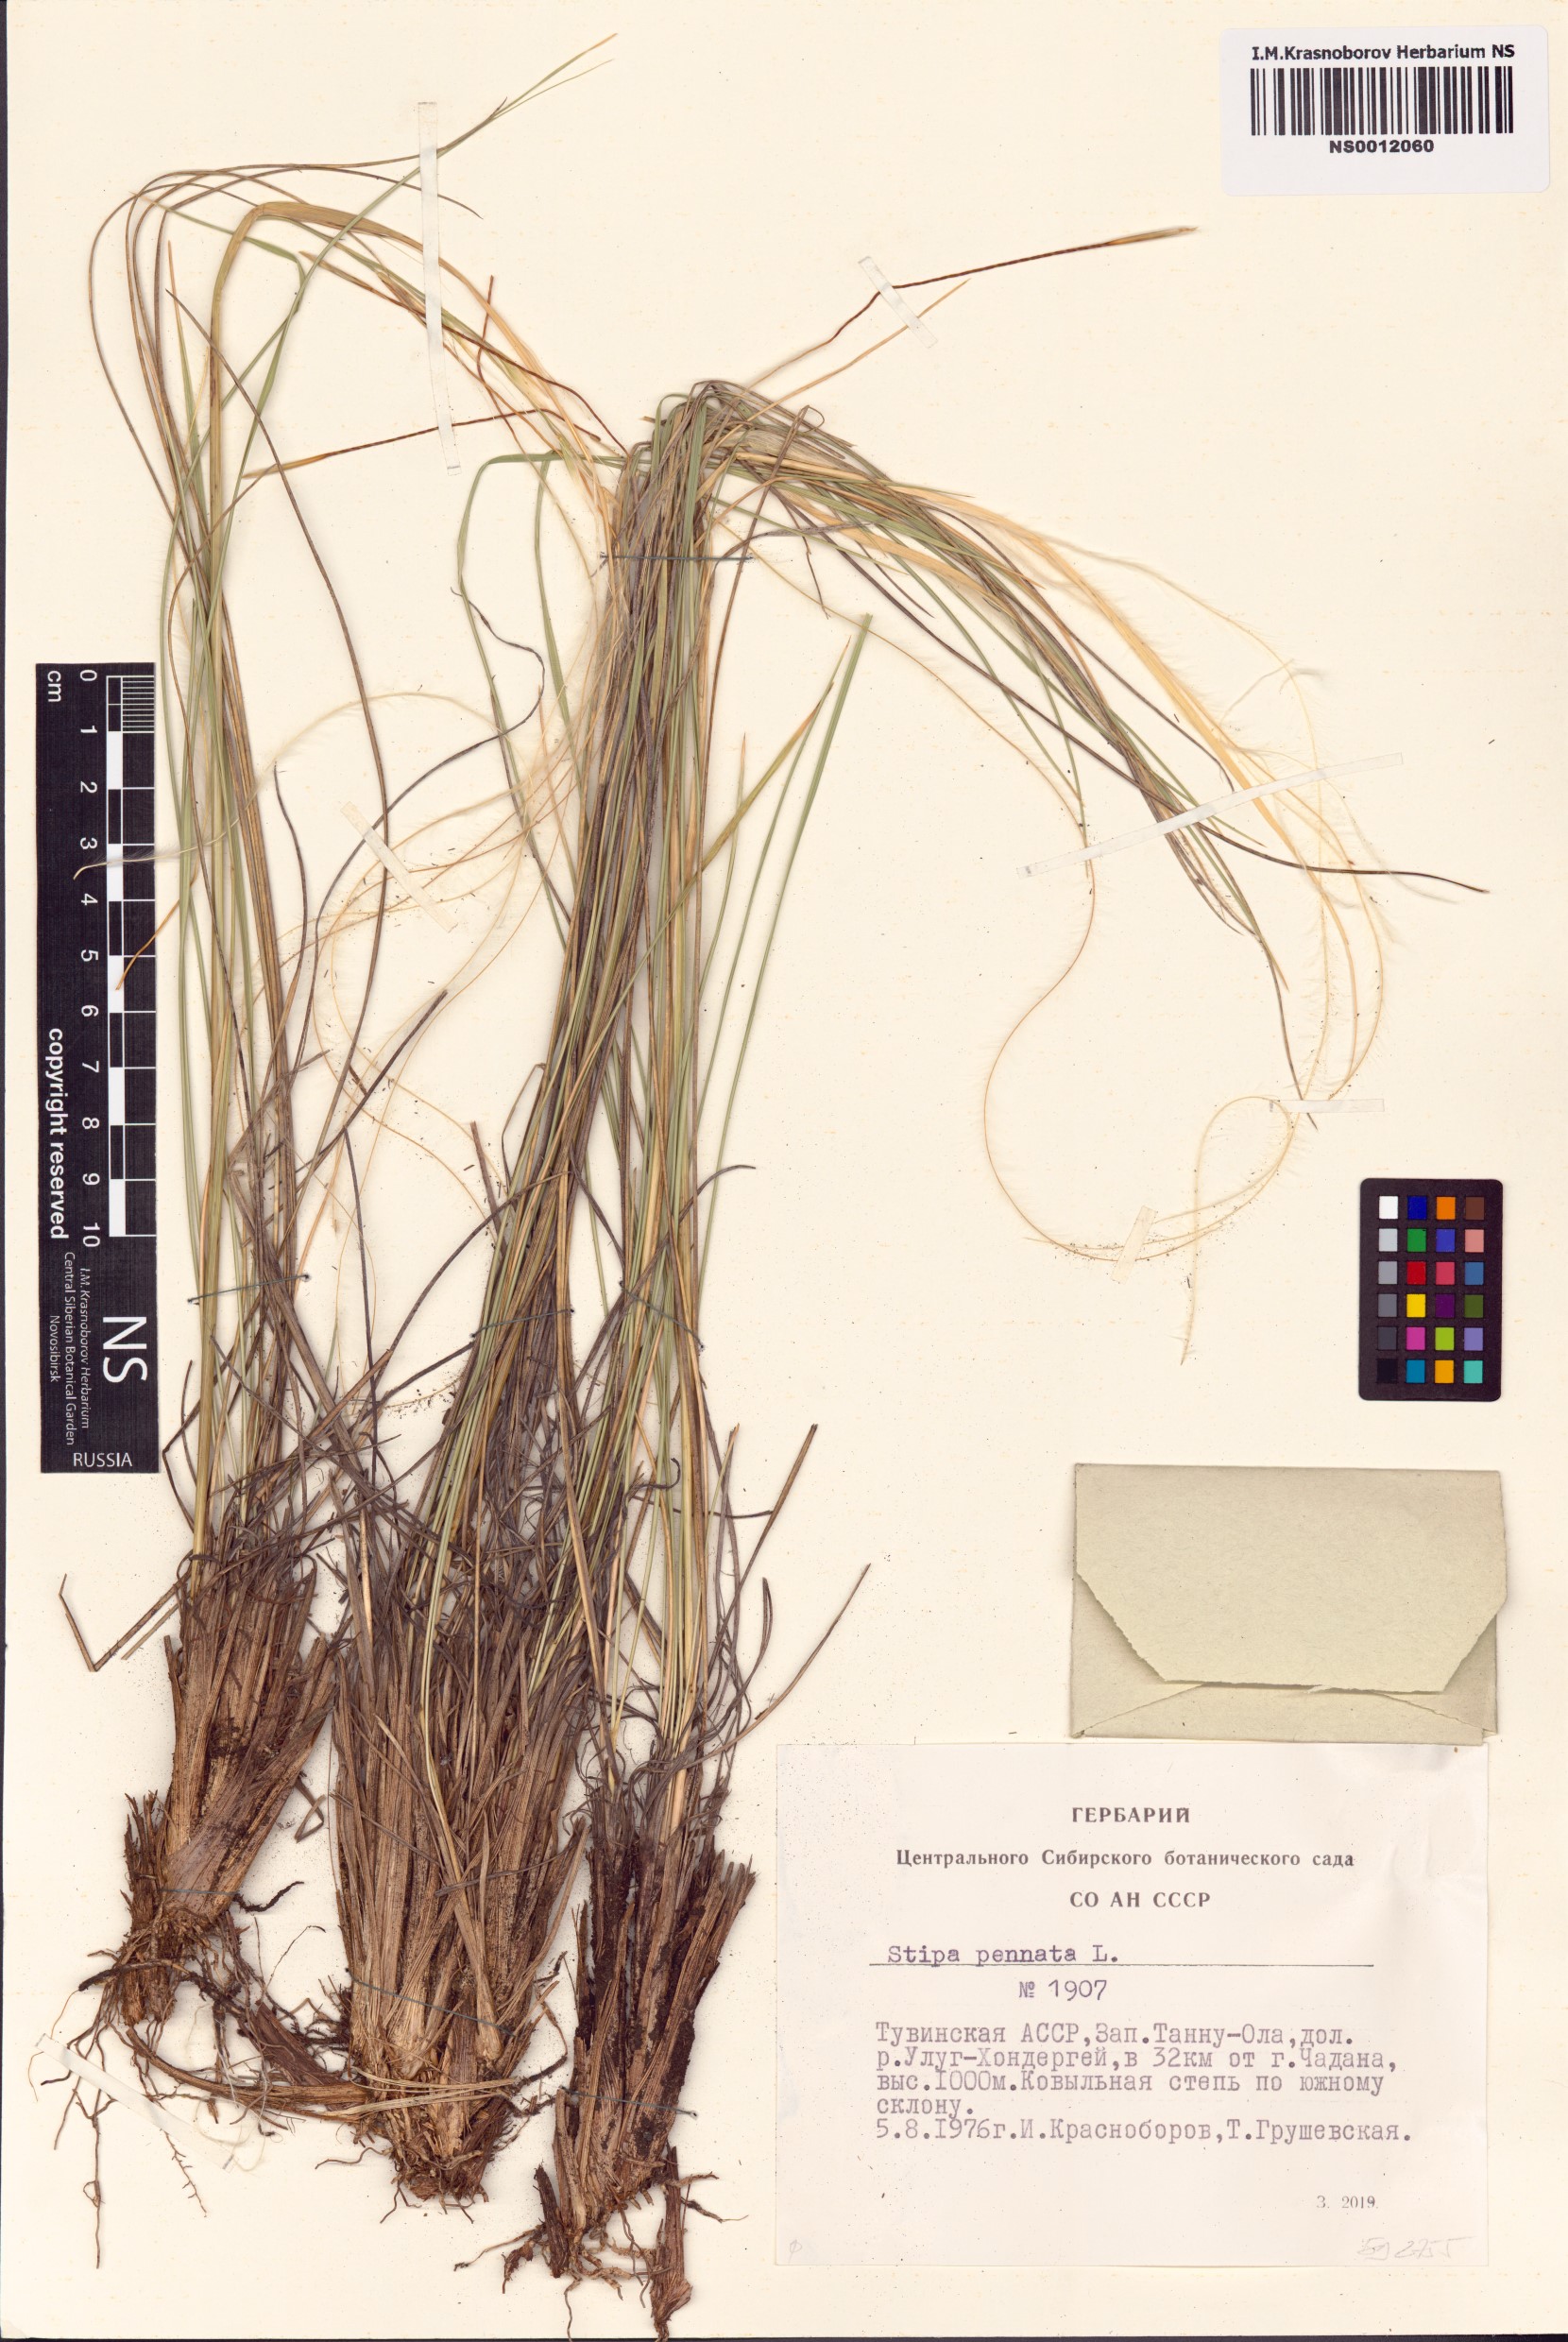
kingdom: Plantae
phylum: Tracheophyta
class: Liliopsida
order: Poales
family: Poaceae
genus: Stipa
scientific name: Stipa pennata
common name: European feather grass
